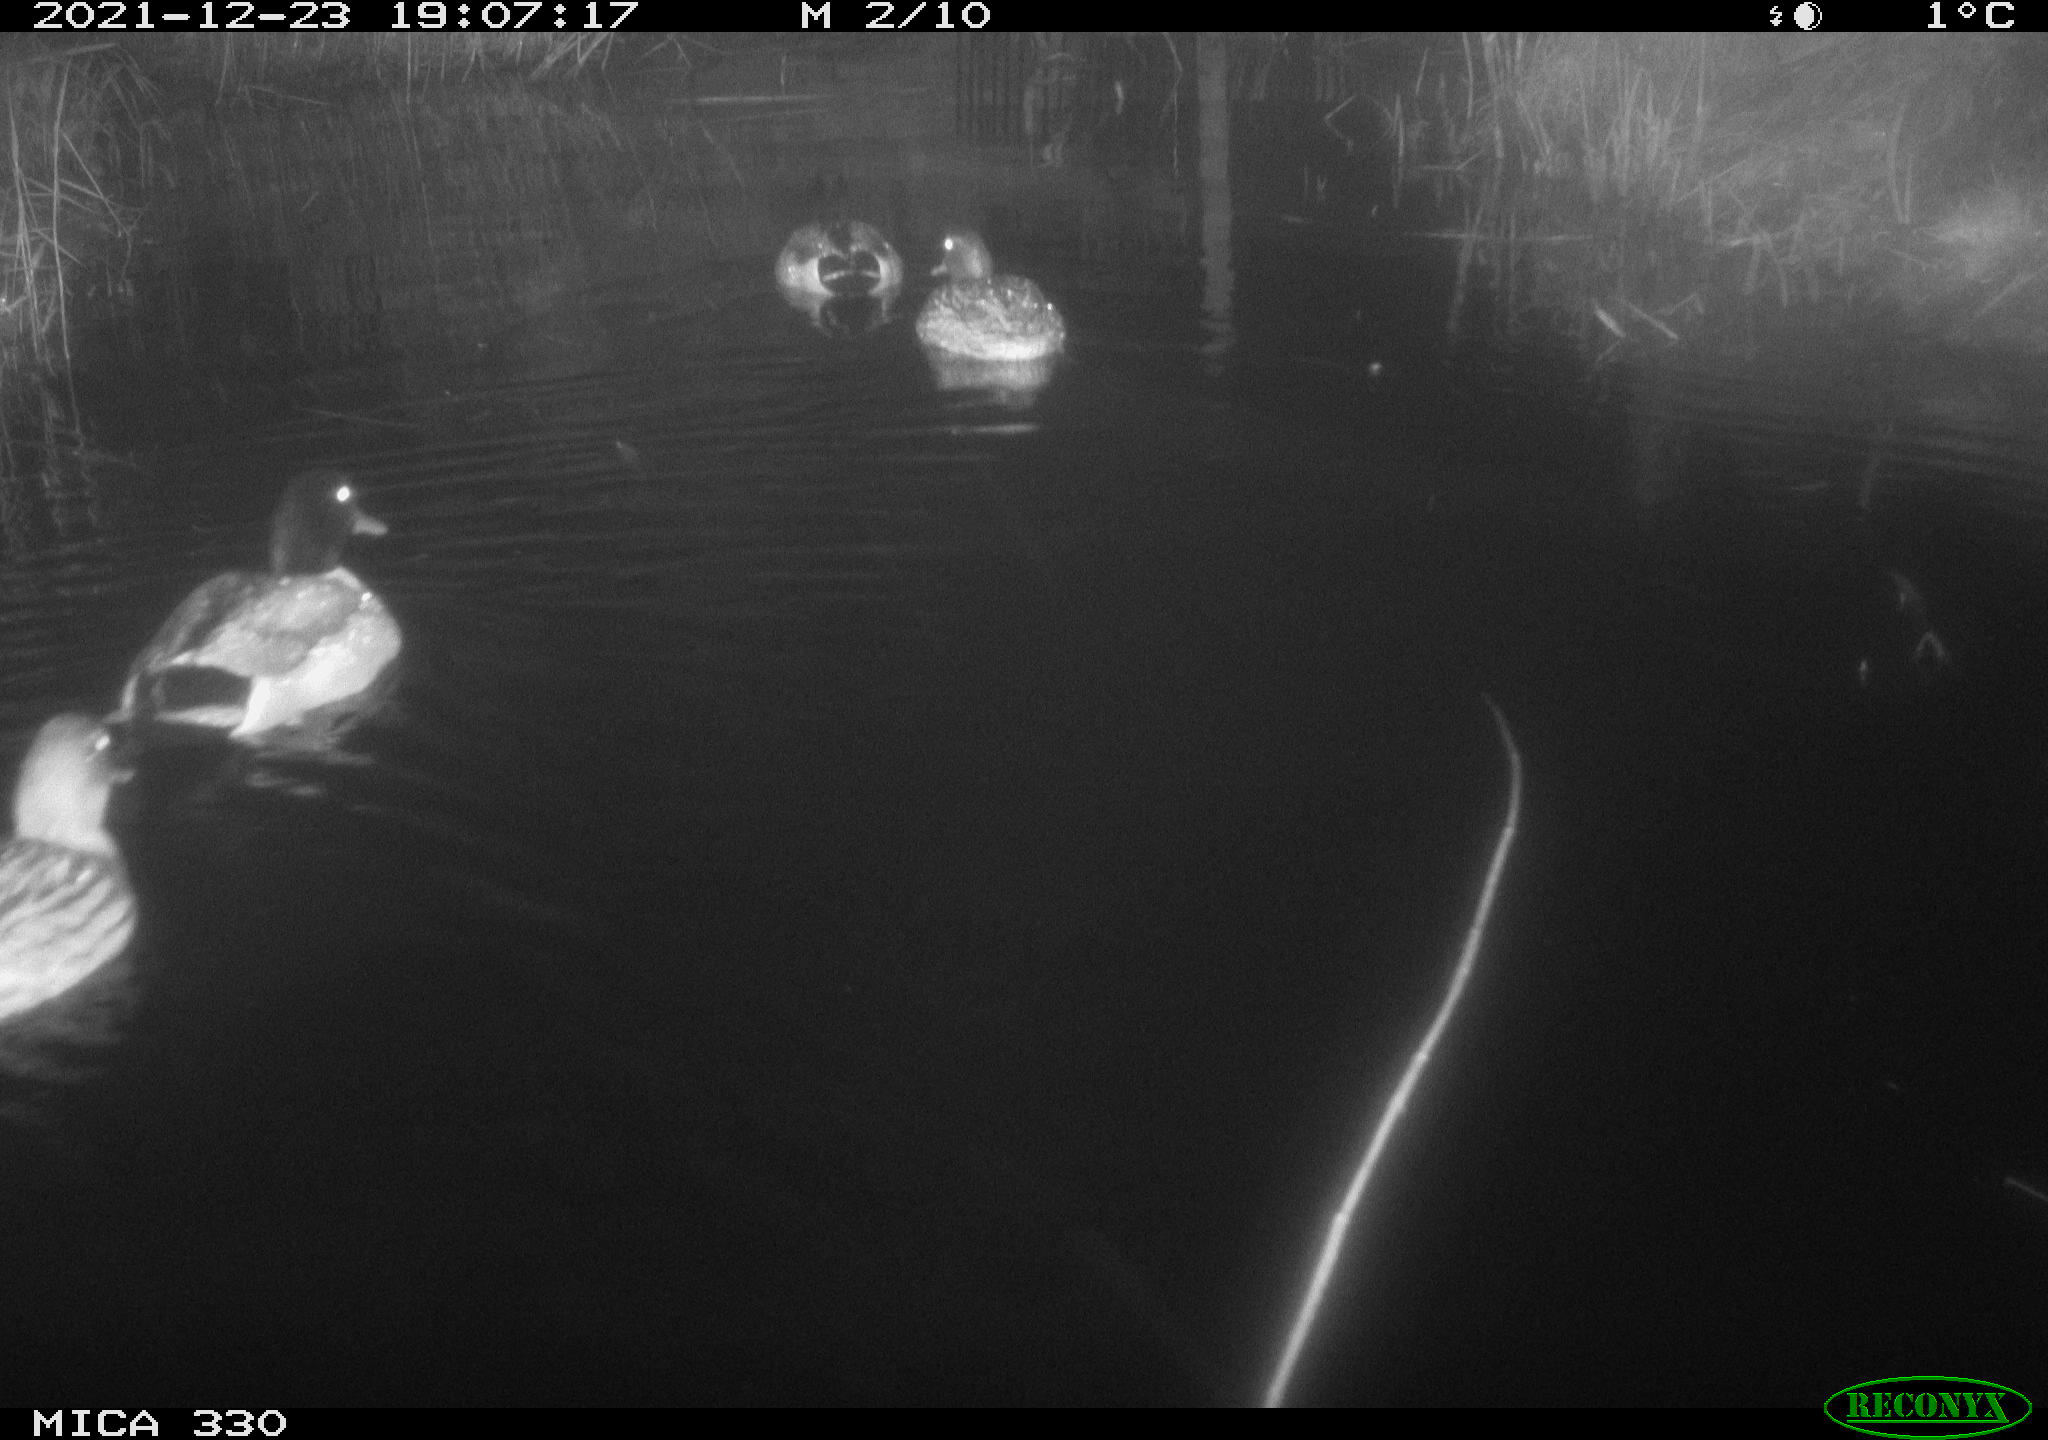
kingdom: Animalia
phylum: Chordata
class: Aves
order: Anseriformes
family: Anatidae
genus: Anas
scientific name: Anas platyrhynchos
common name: Mallard
